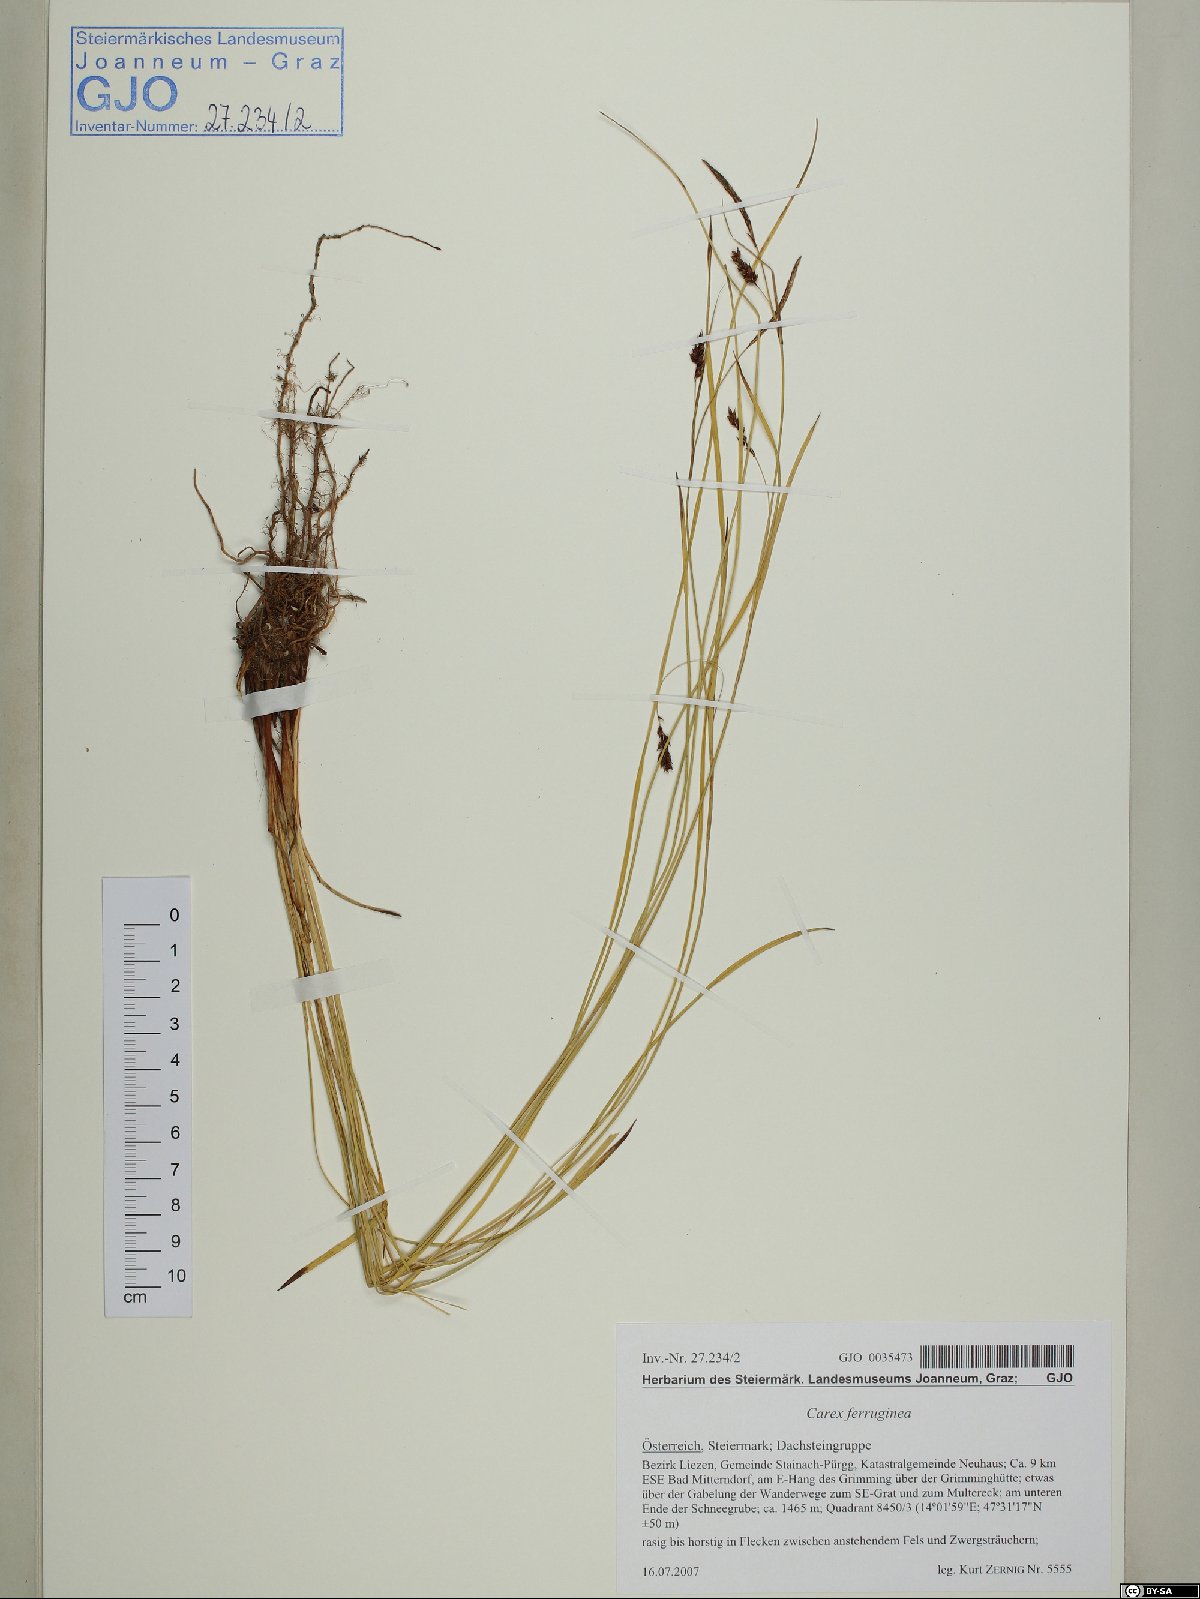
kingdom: Plantae
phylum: Tracheophyta
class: Liliopsida
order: Poales
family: Cyperaceae
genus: Carex
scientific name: Carex ferruginea
